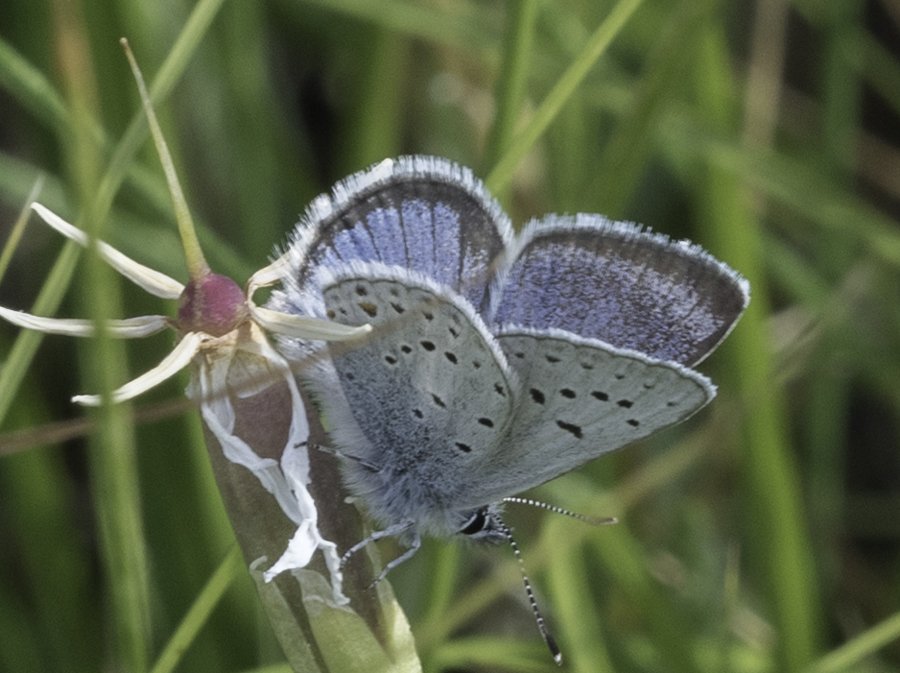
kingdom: Animalia
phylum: Arthropoda
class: Insecta
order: Lepidoptera
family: Lycaenidae
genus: Plebejus
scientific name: Plebejus saepiolus
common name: Greenish Blue
